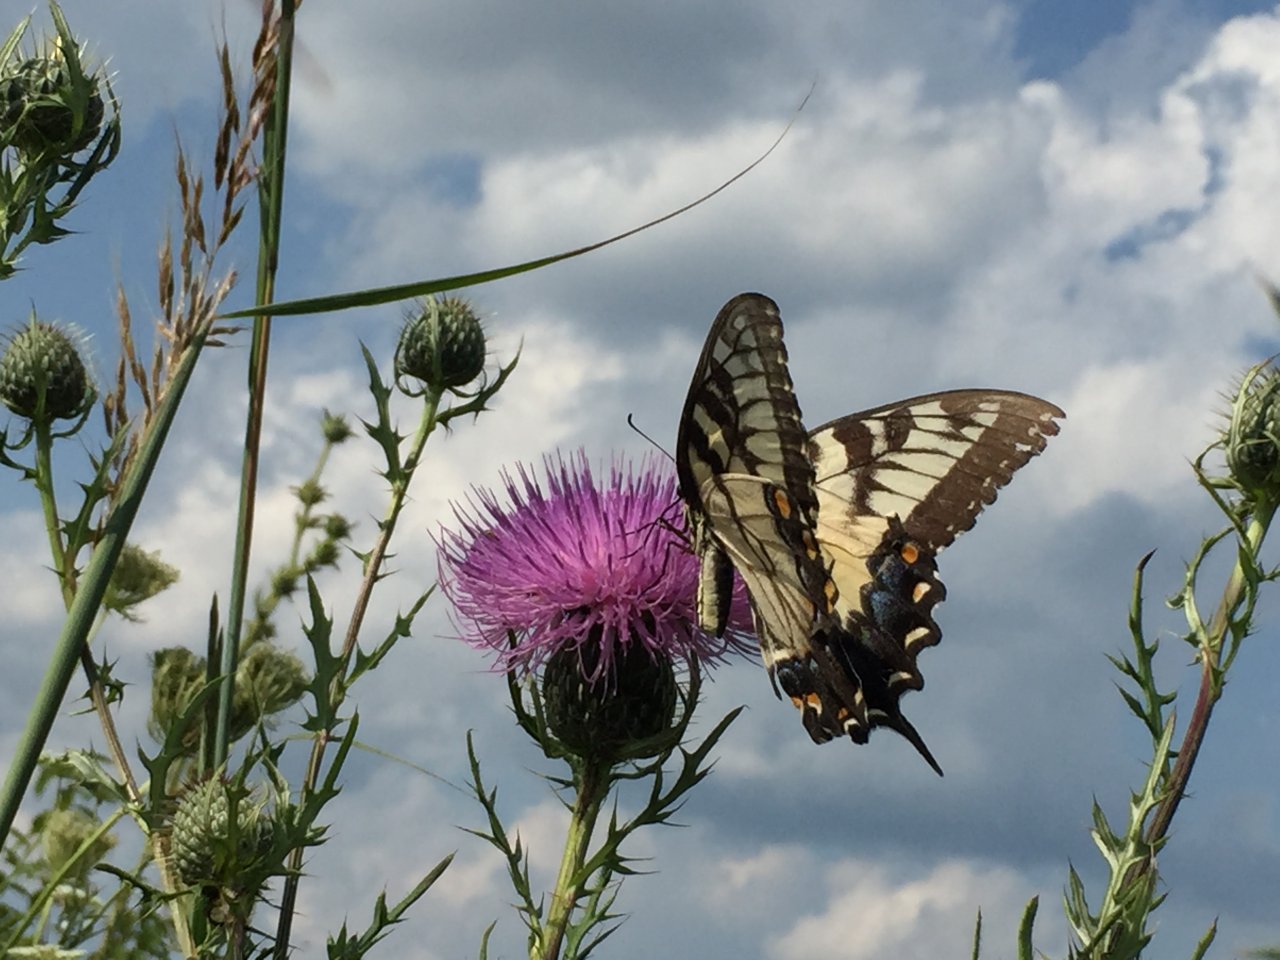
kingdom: Animalia
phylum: Arthropoda
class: Insecta
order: Lepidoptera
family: Papilionidae
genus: Pterourus
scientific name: Pterourus glaucus
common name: Eastern Tiger Swallowtail
